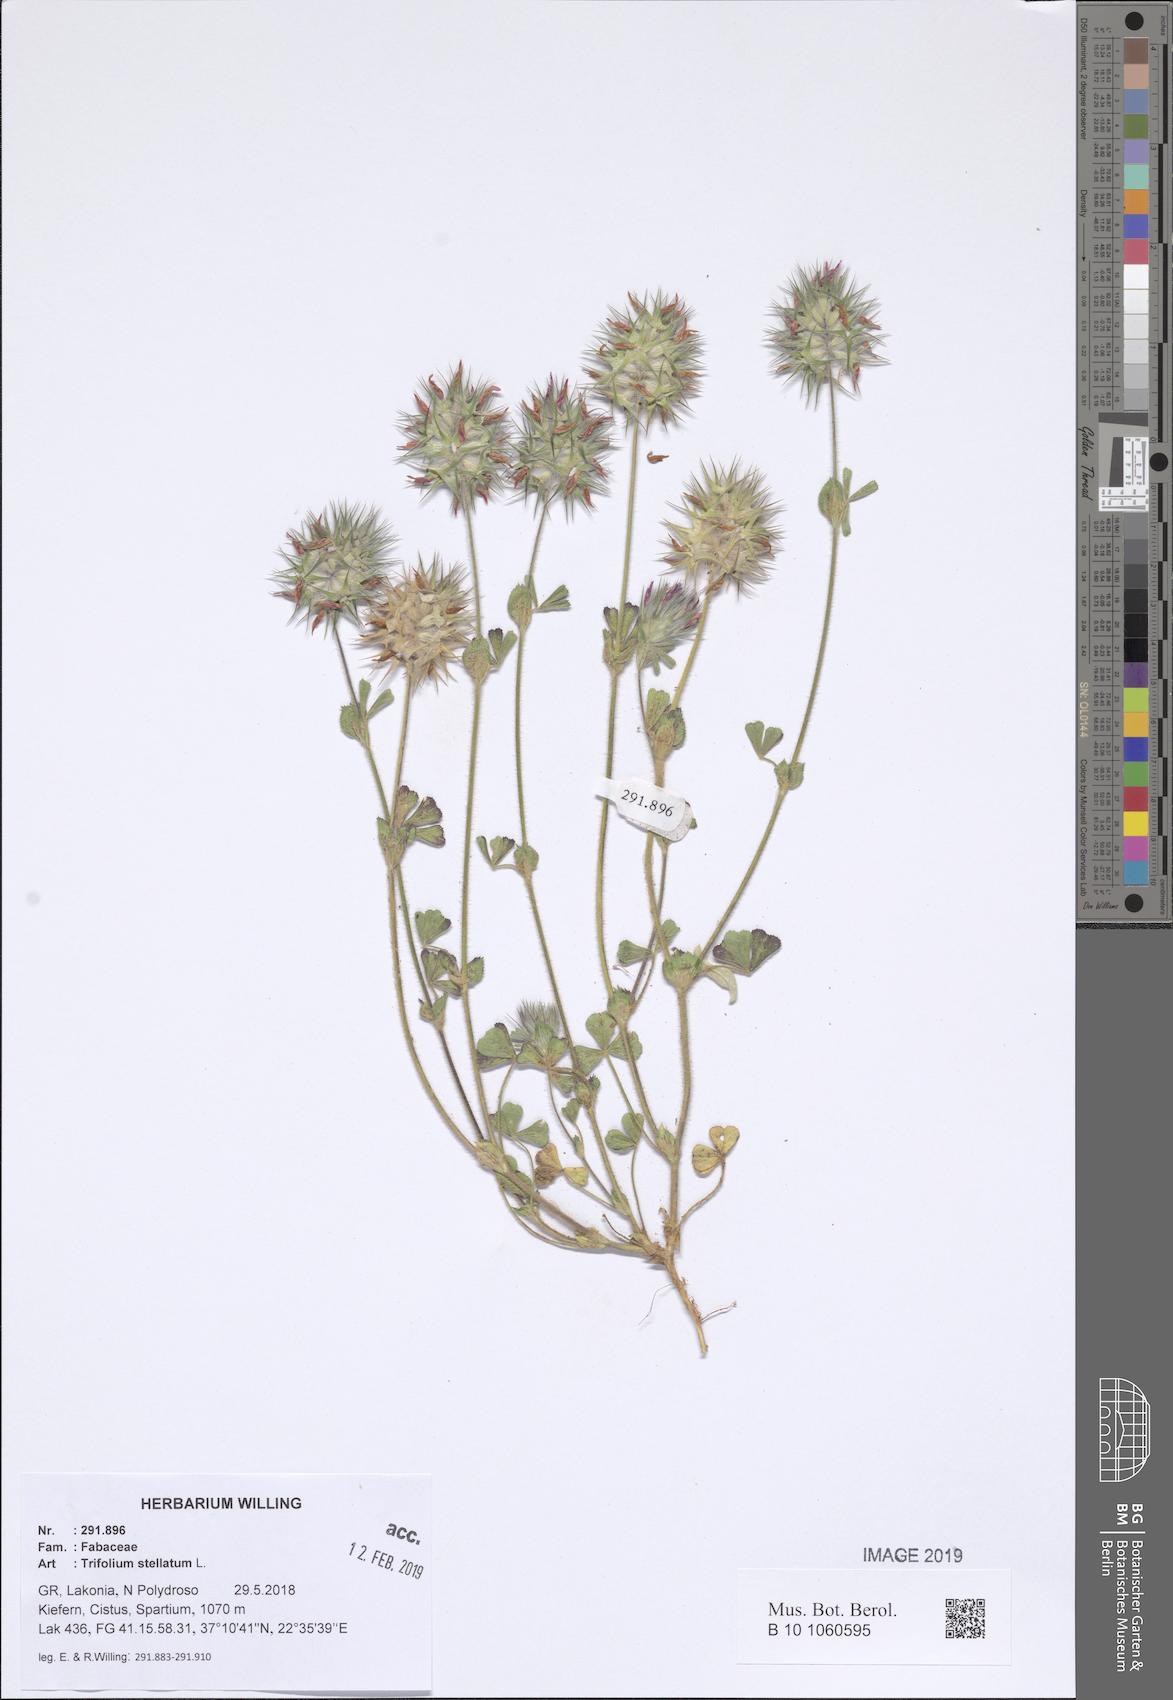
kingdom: Plantae
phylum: Tracheophyta
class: Magnoliopsida
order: Fabales
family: Fabaceae
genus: Trifolium
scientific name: Trifolium stellatum
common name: Starry clover
